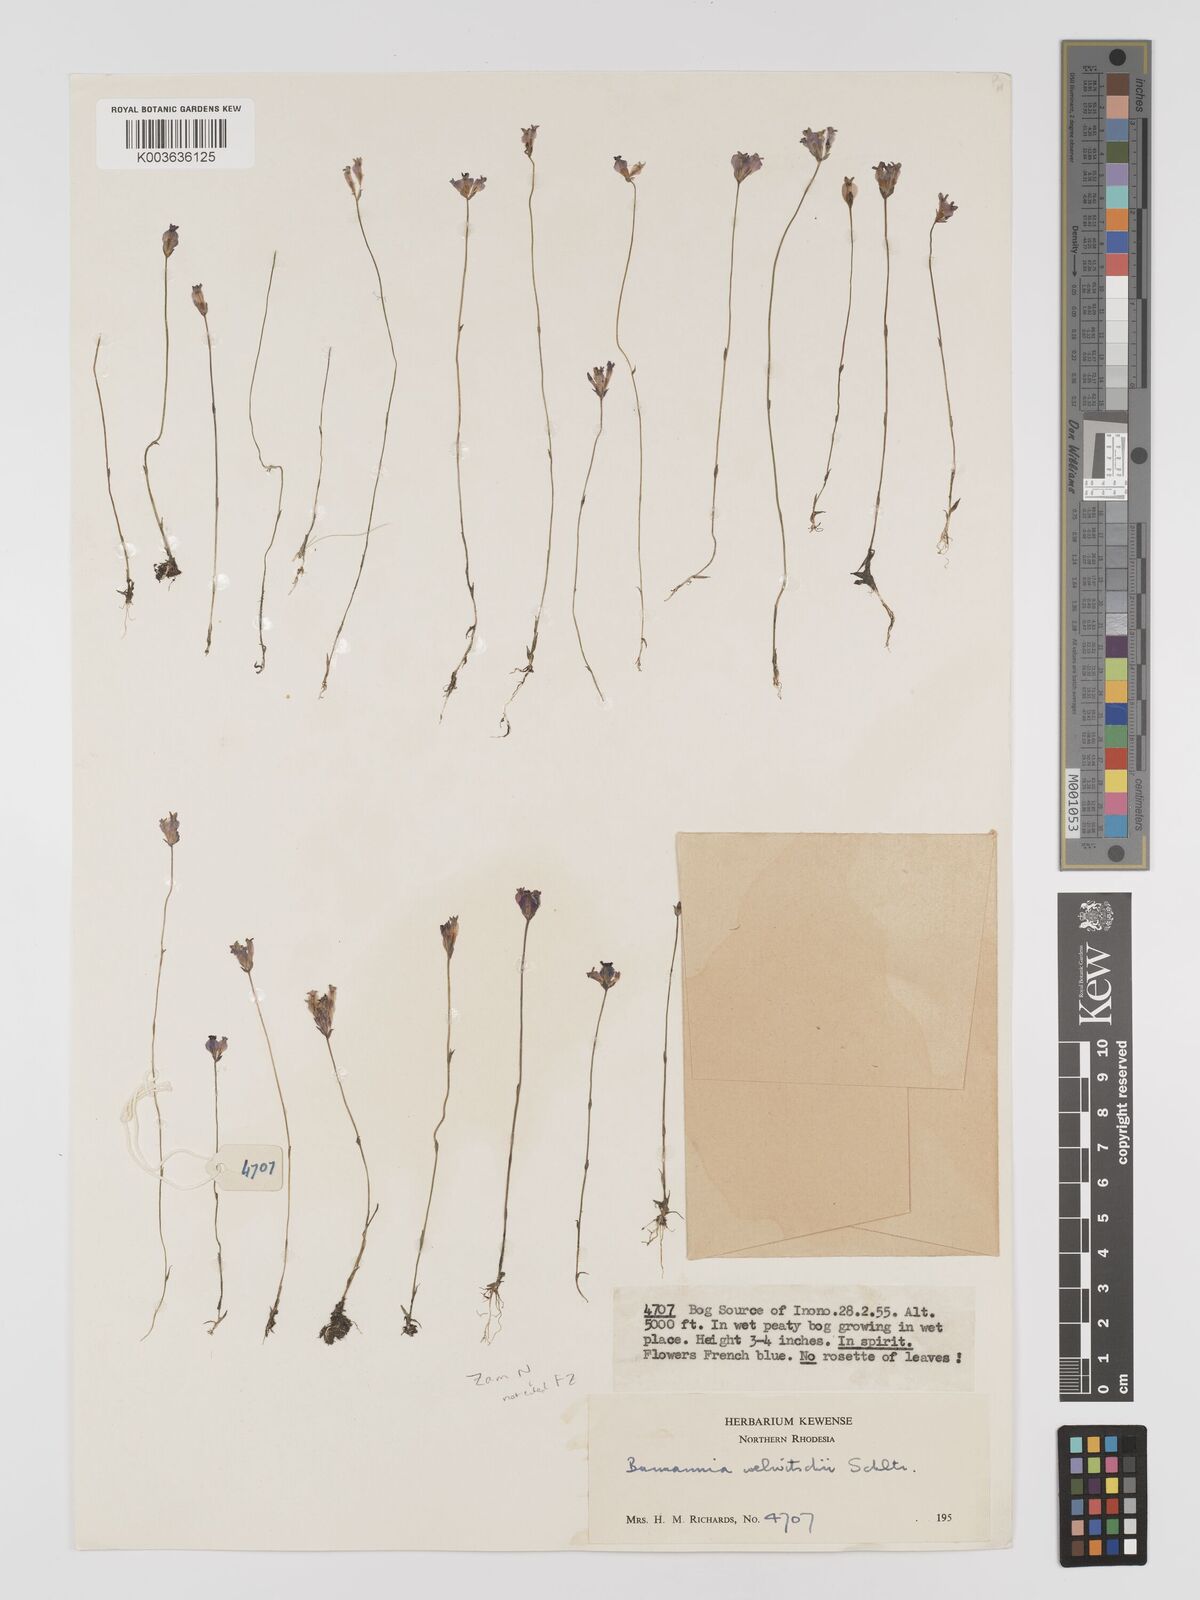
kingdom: Plantae
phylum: Tracheophyta
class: Liliopsida
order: Dioscoreales
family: Burmanniaceae
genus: Burmannia
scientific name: Burmannia madagascariensis
